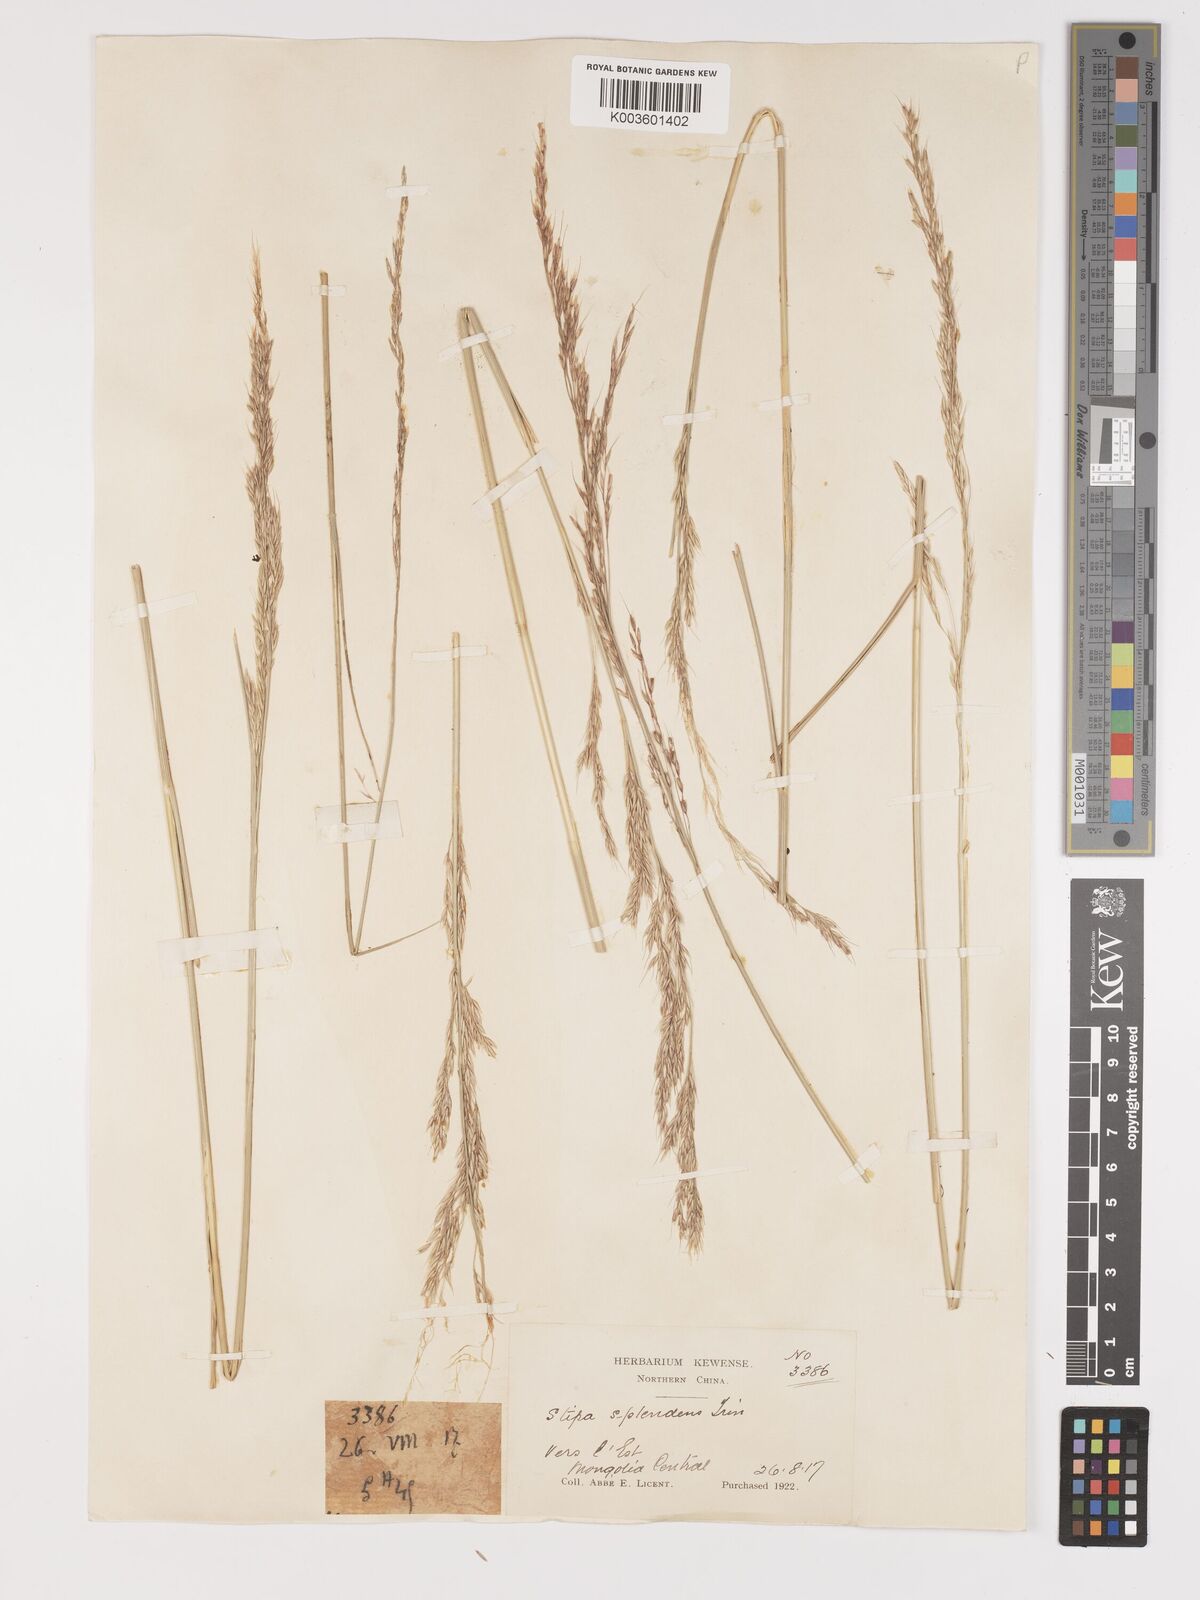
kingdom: Plantae
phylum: Tracheophyta
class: Liliopsida
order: Poales
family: Poaceae
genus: Neotrinia
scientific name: Neotrinia splendens
